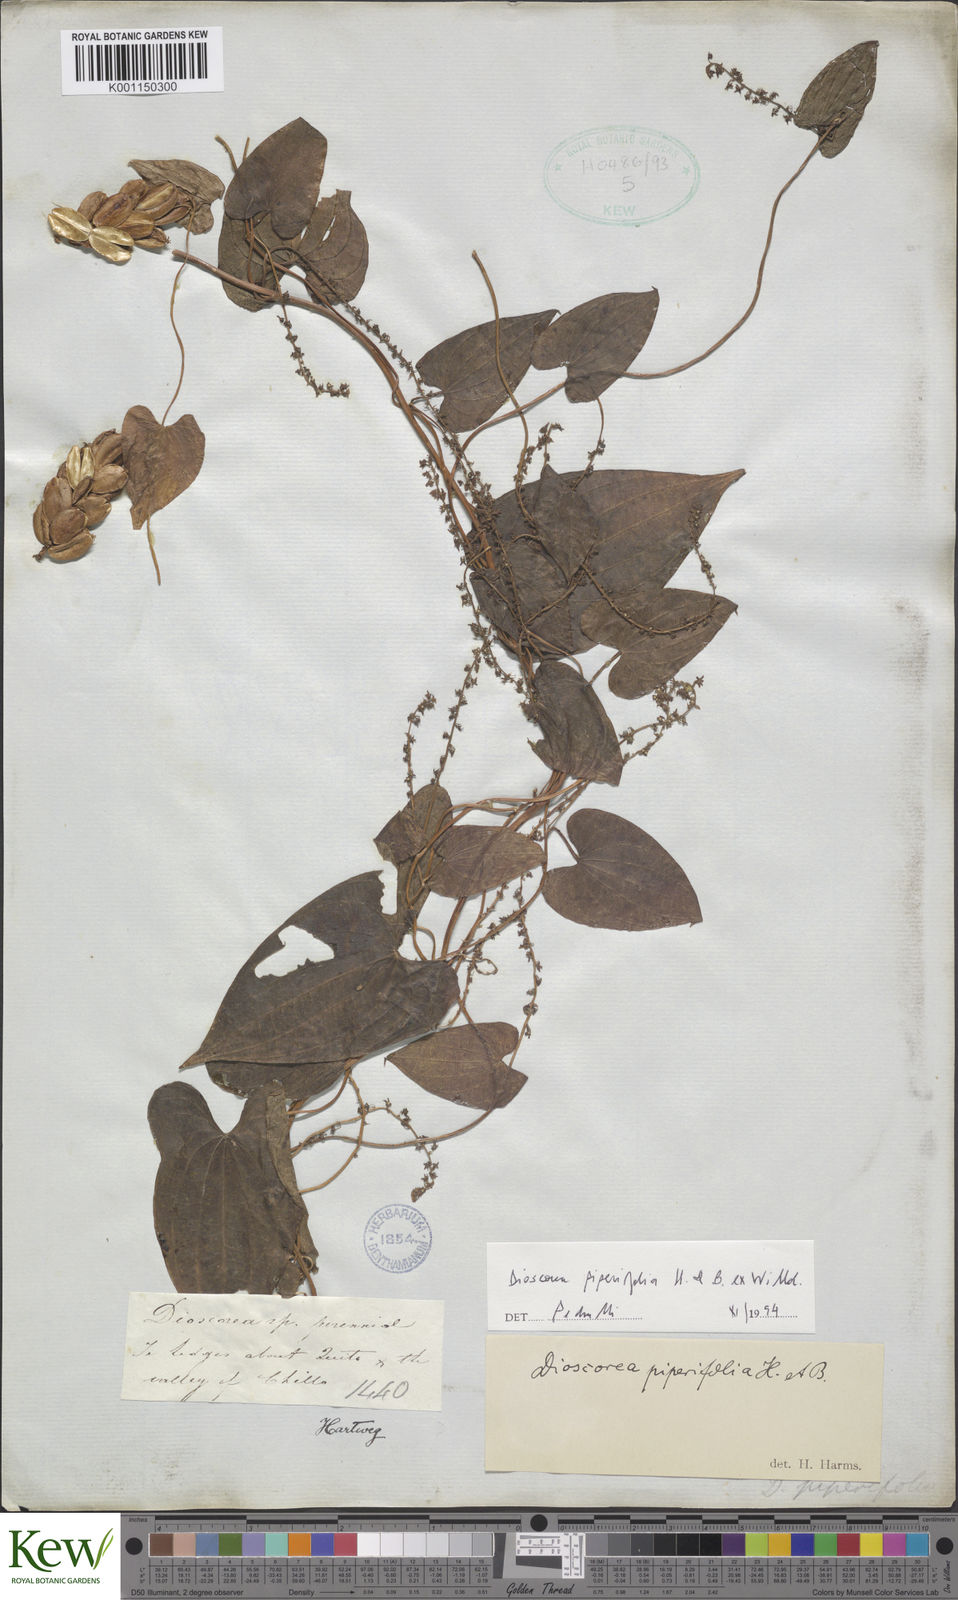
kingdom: Plantae
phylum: Tracheophyta
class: Liliopsida
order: Dioscoreales
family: Dioscoreaceae
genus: Dioscorea
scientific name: Dioscorea piperifolia
